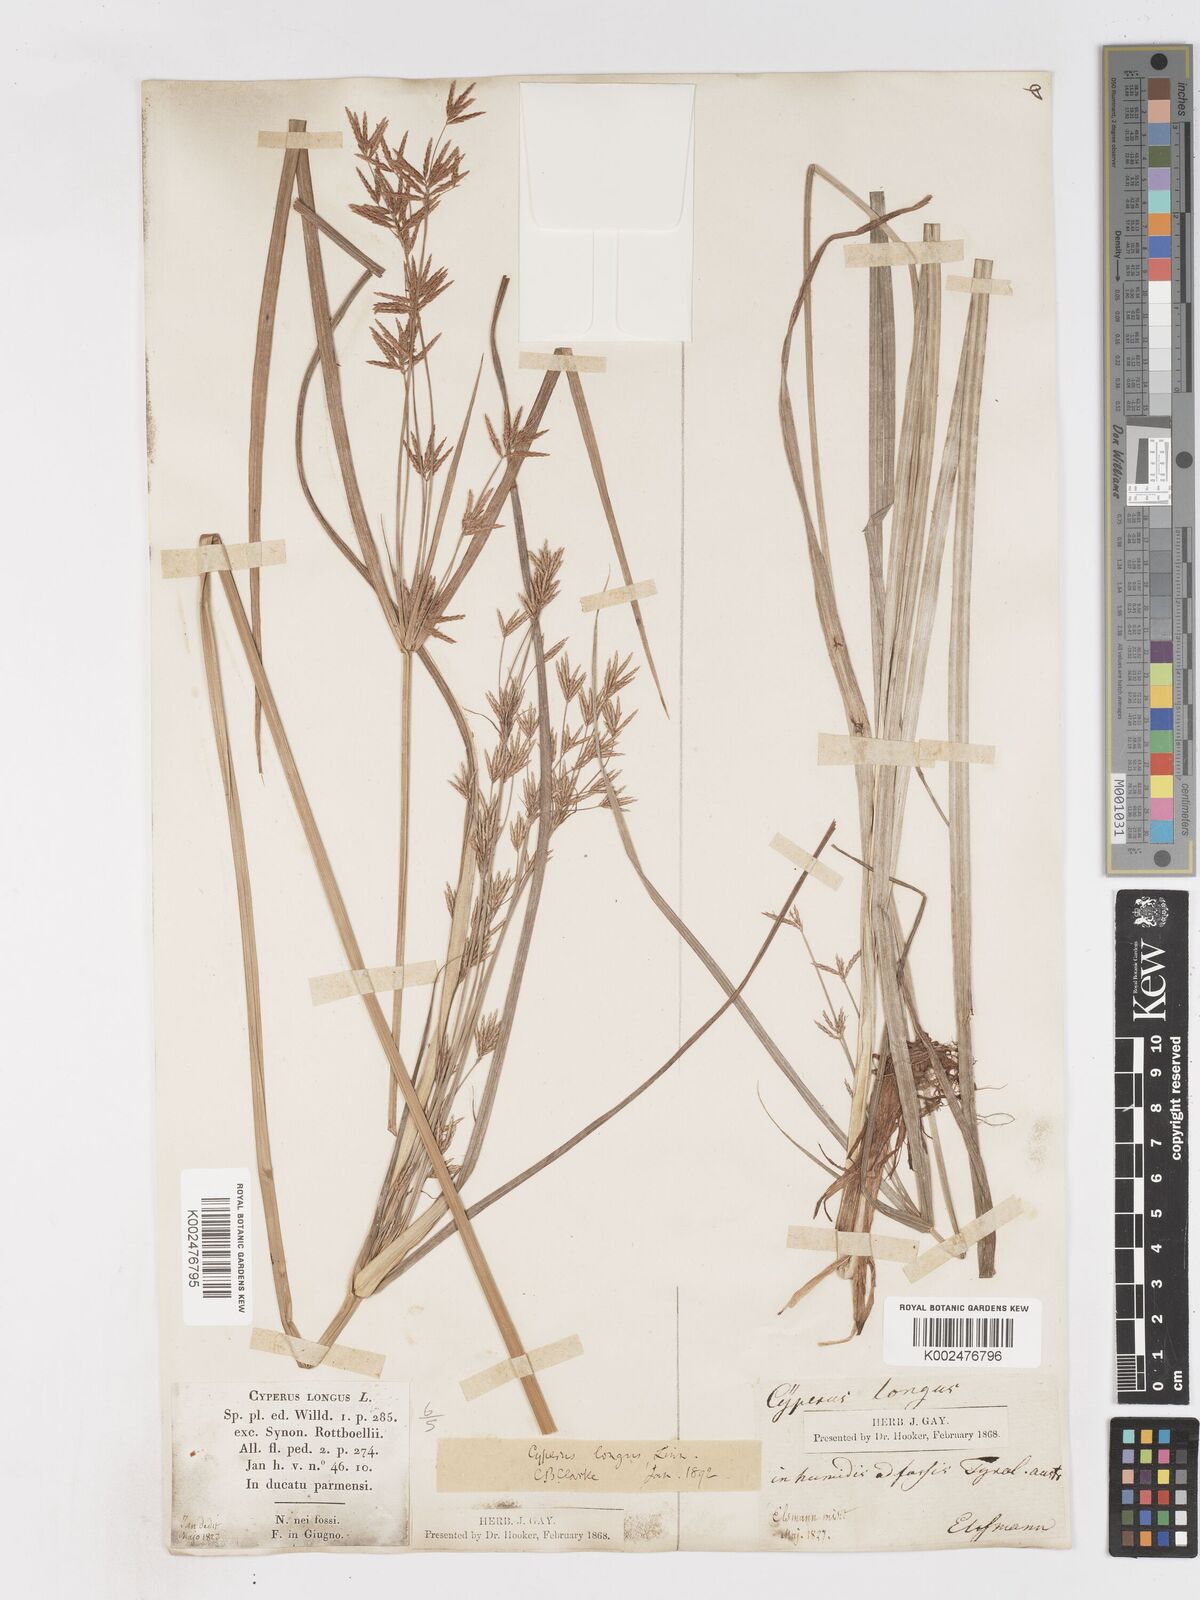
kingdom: Plantae
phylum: Tracheophyta
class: Liliopsida
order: Poales
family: Cyperaceae
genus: Cyperus
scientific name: Cyperus longus
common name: Galingale
